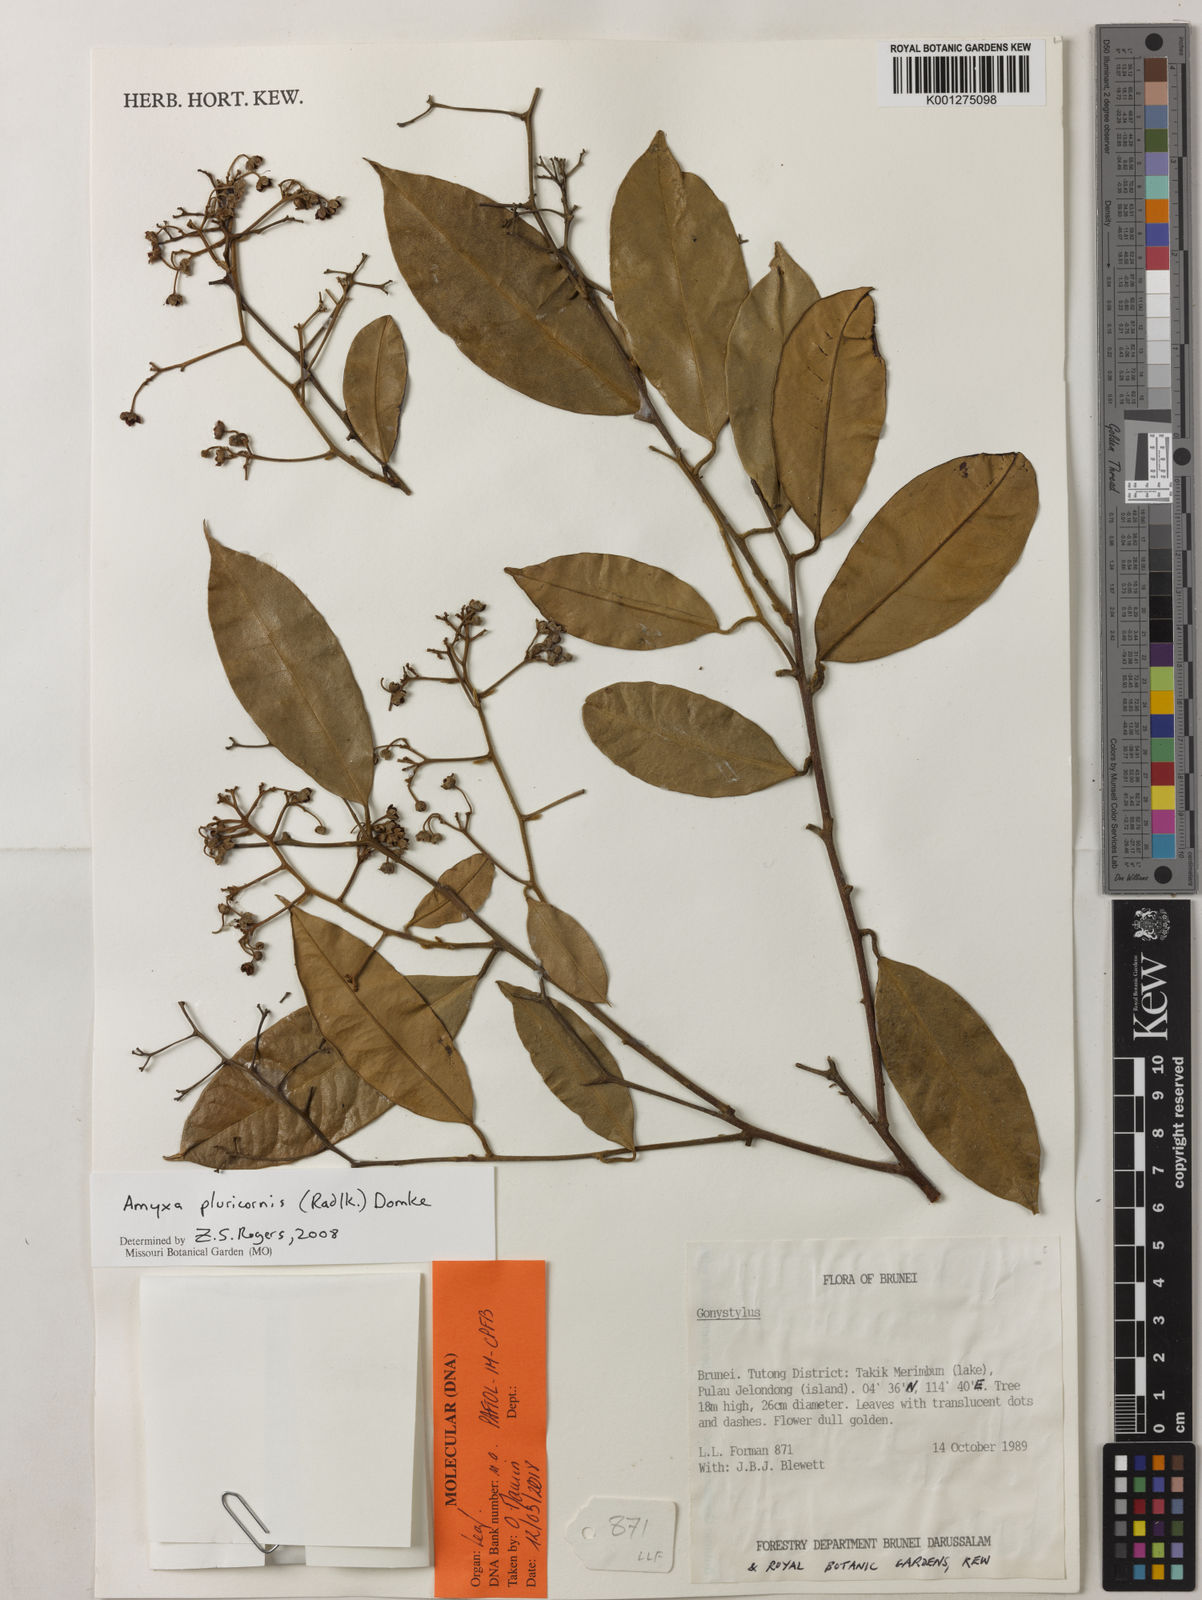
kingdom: Plantae
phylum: Tracheophyta
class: Magnoliopsida
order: Malvales
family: Thymelaeaceae
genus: Amyxa
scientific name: Amyxa pluricornis
